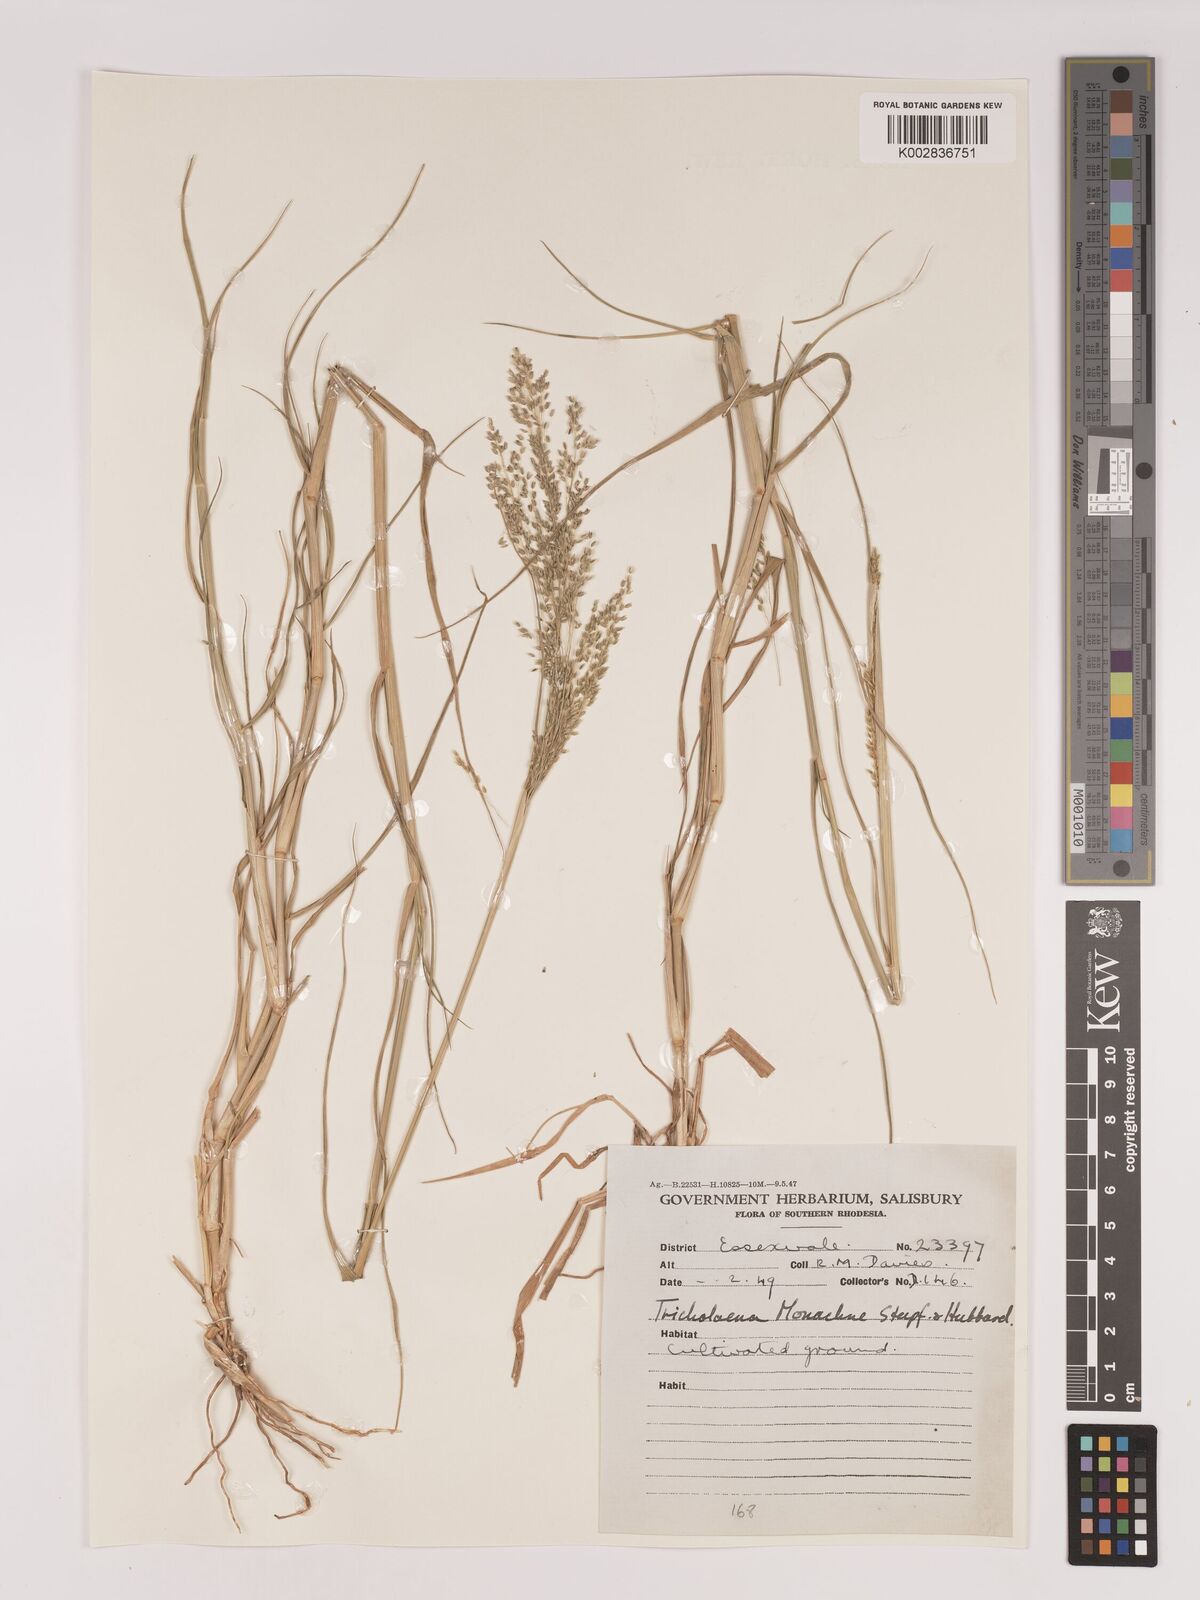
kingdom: Plantae
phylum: Tracheophyta
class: Liliopsida
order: Poales
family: Poaceae
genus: Tricholaena
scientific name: Tricholaena monachne
